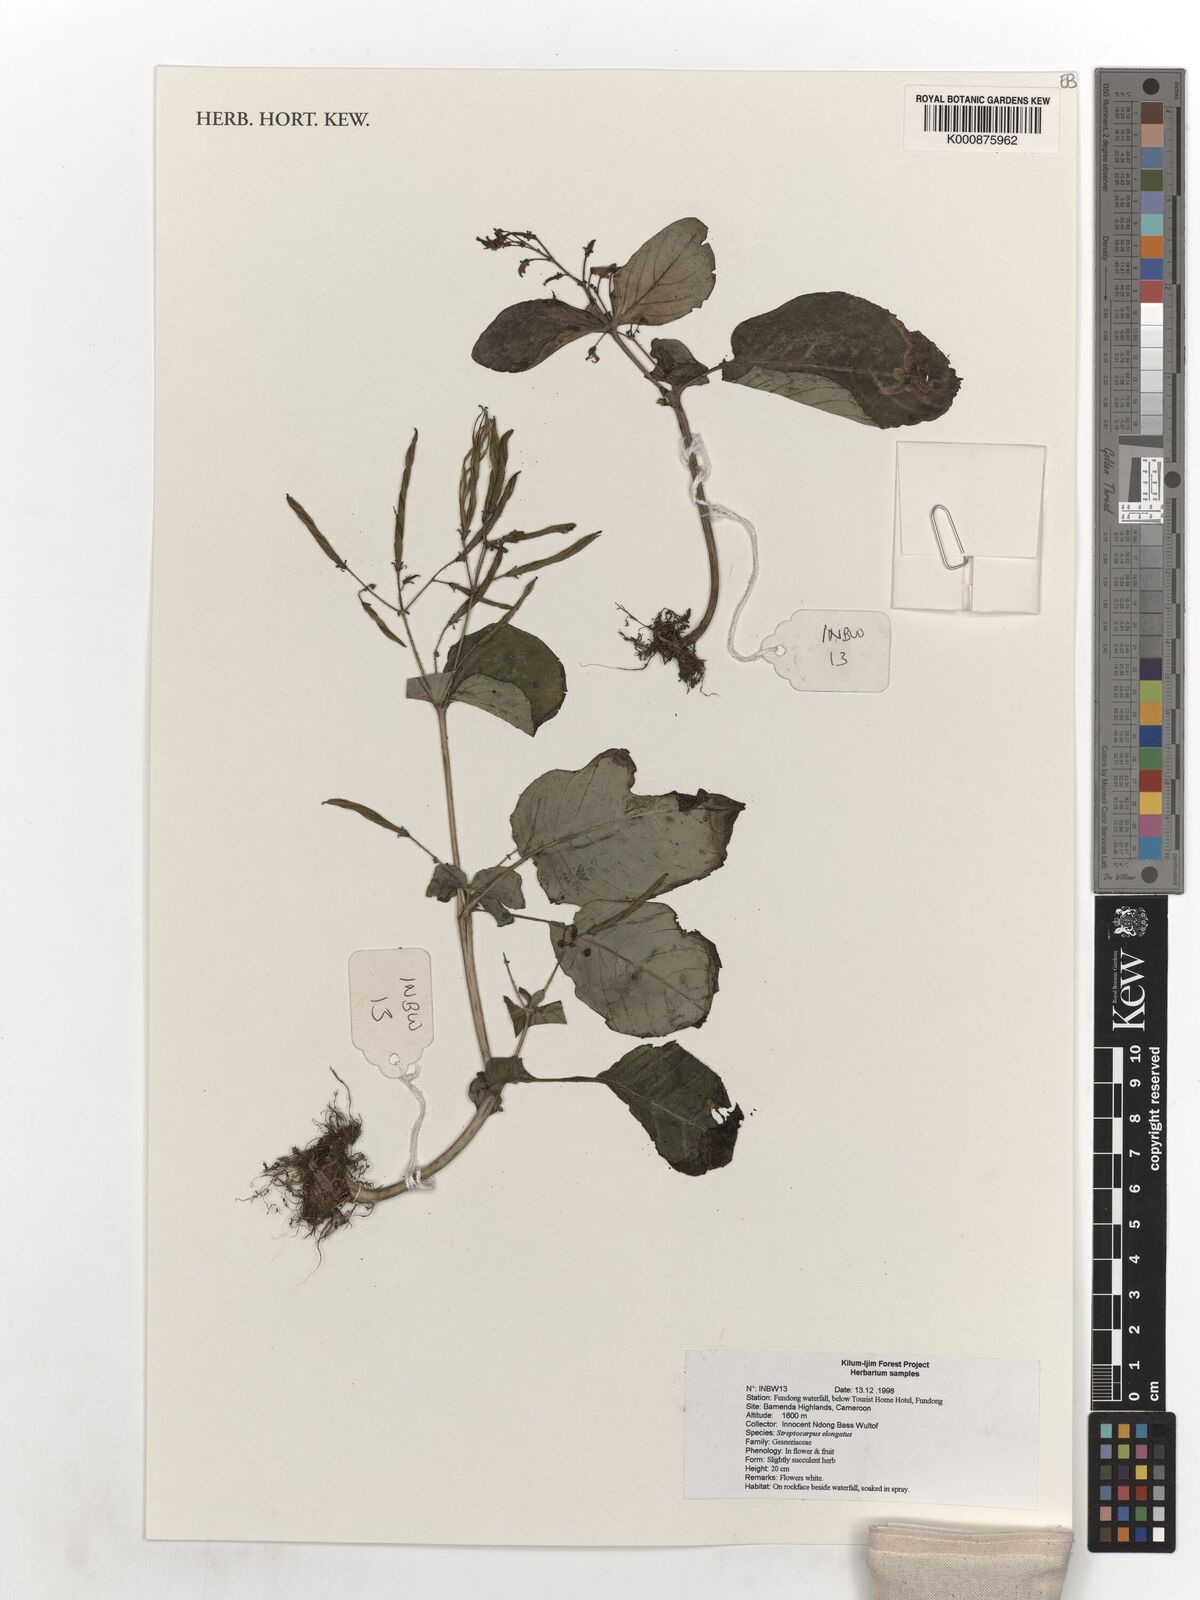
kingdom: Plantae
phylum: Tracheophyta
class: Magnoliopsida
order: Lamiales
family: Gesneriaceae
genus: Streptocarpus
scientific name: Streptocarpus elongatus
